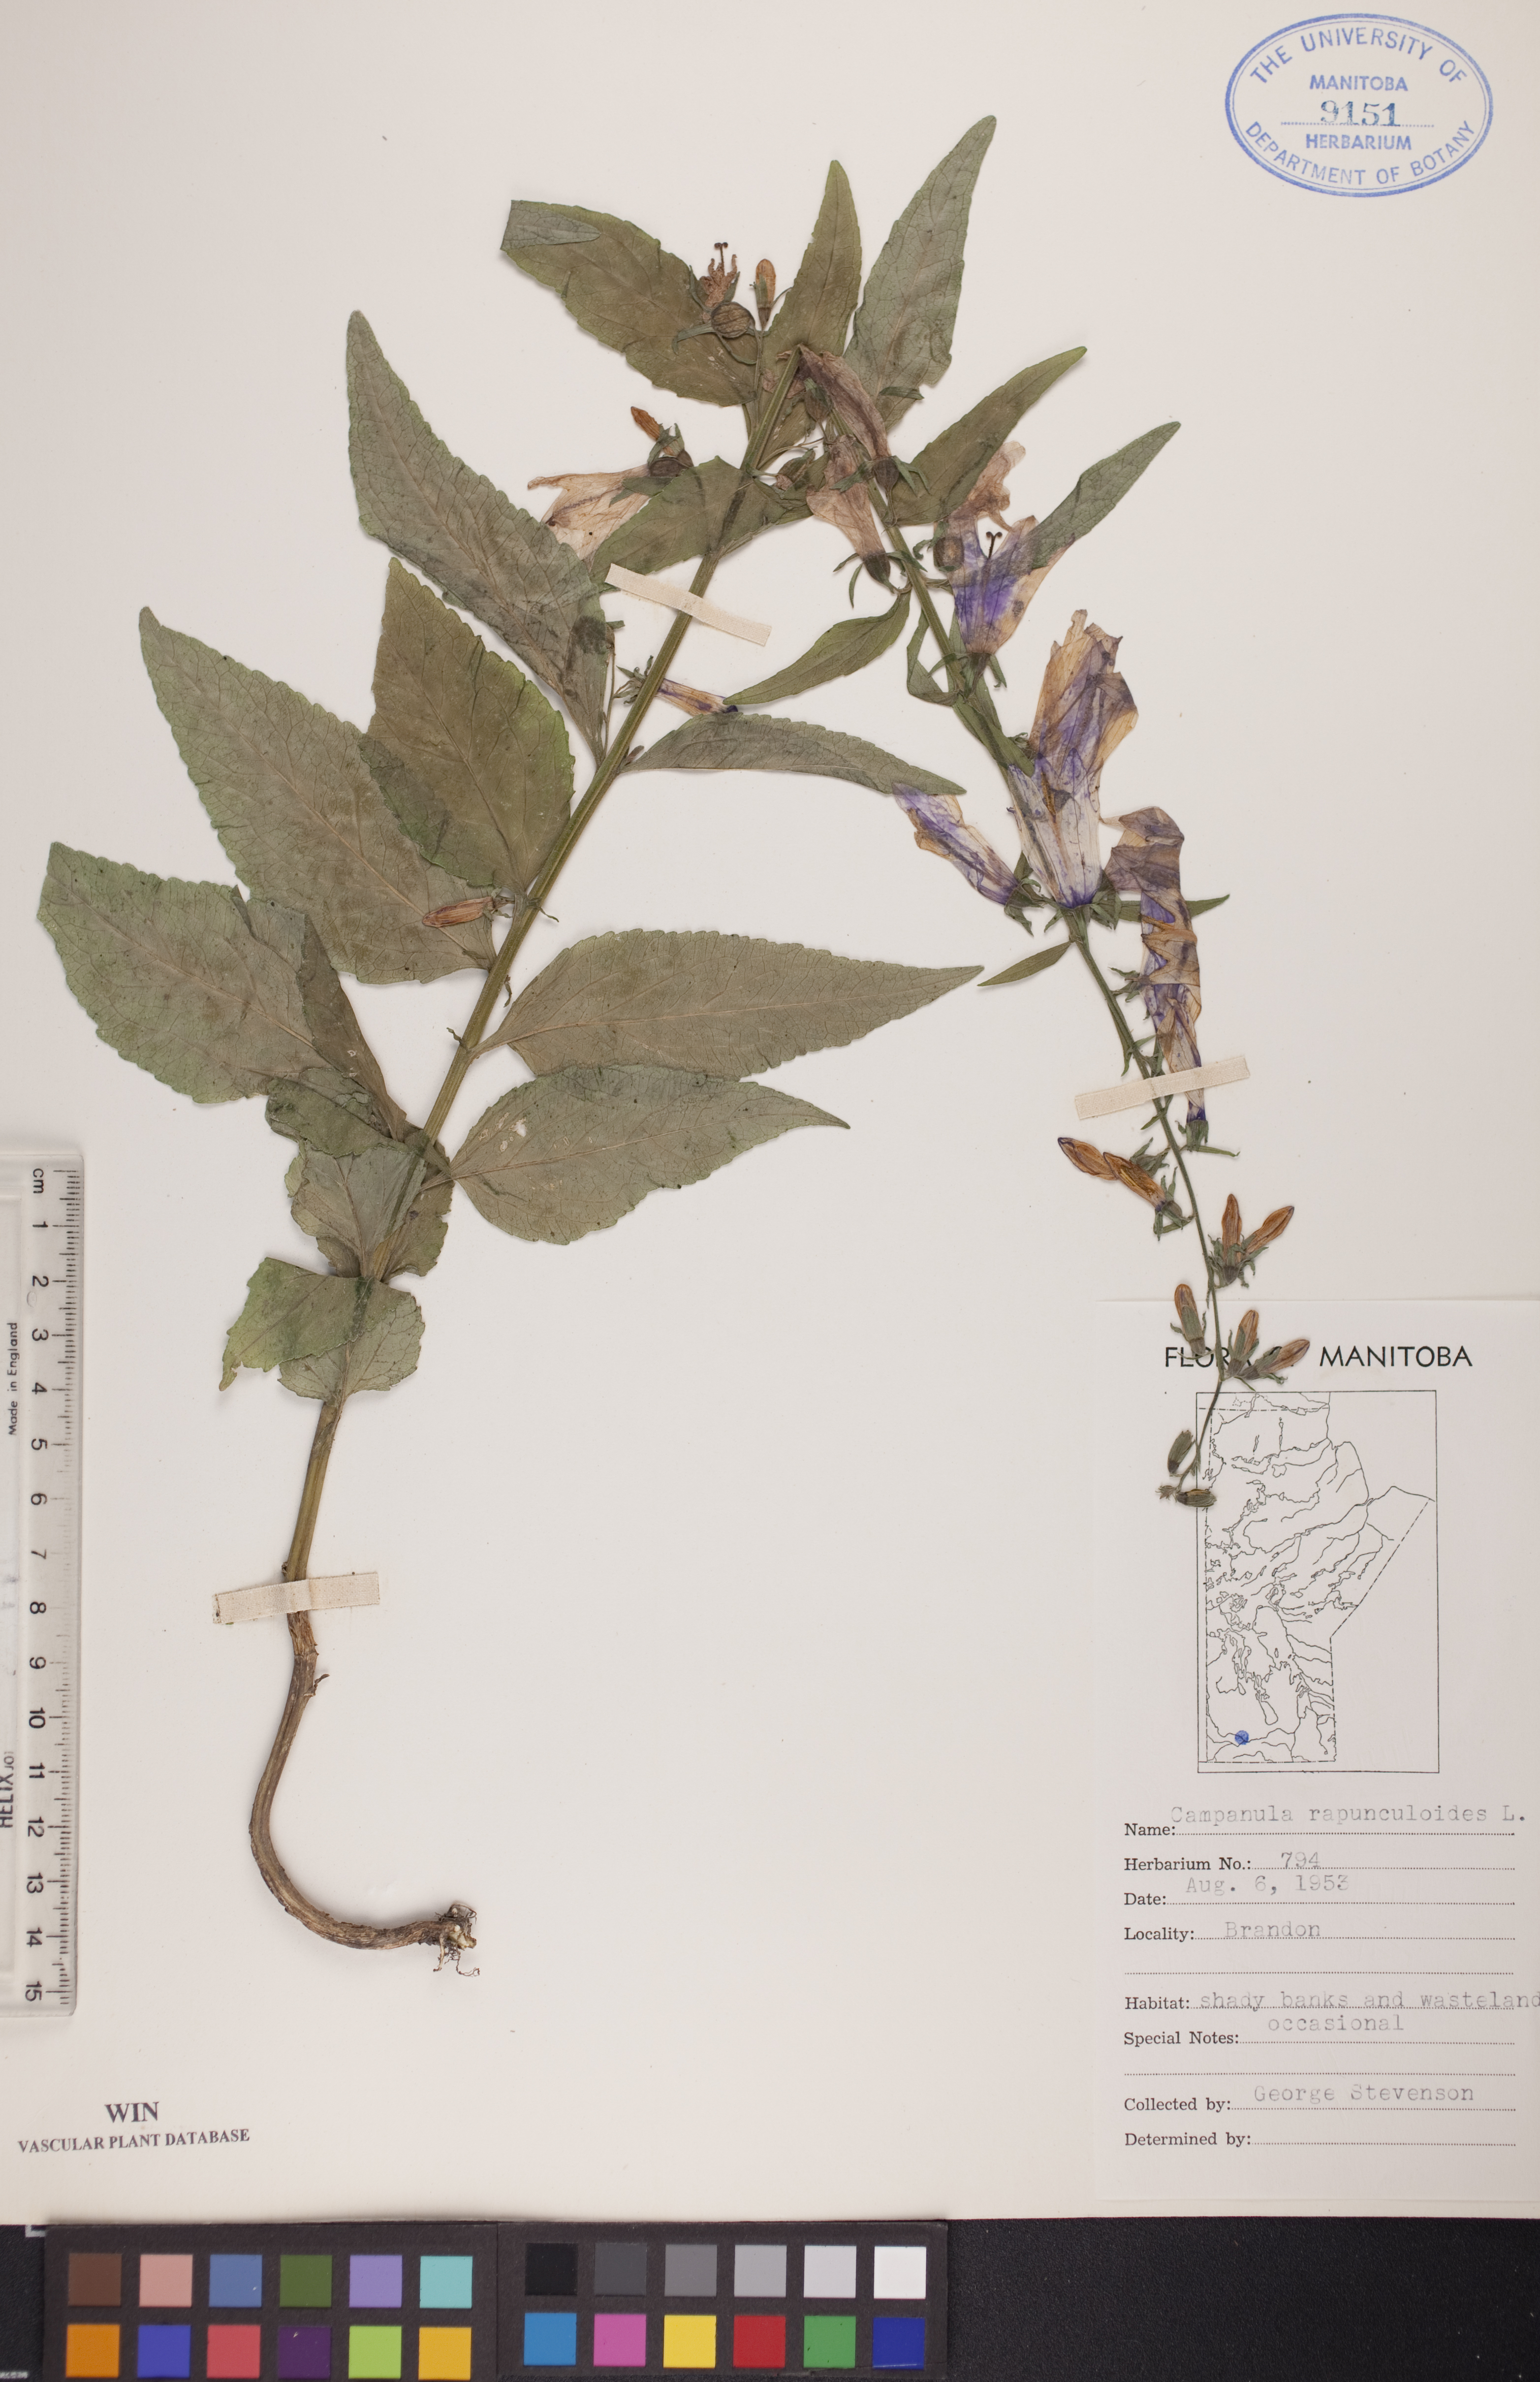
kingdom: Plantae
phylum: Tracheophyta
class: Magnoliopsida
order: Asterales
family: Campanulaceae
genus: Campanula
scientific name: Campanula rapunculoides
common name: Creeping bellflower
